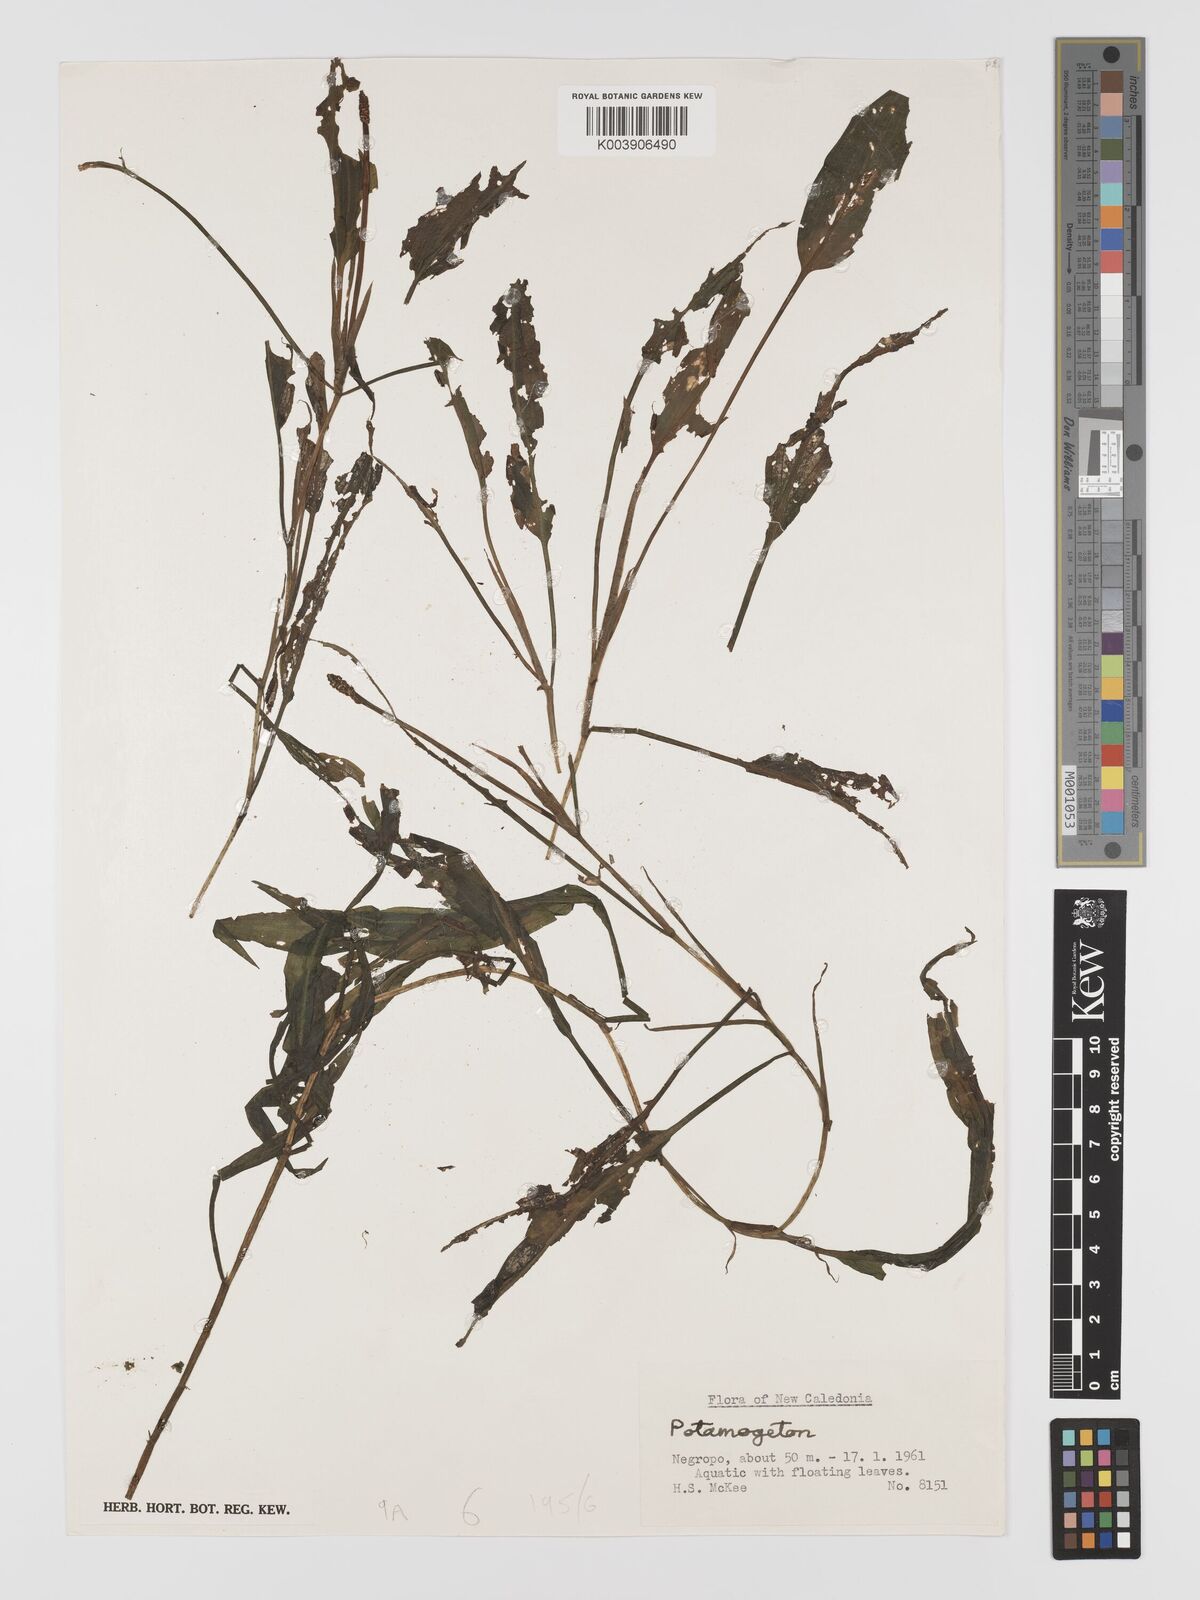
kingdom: Plantae
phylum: Tracheophyta
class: Liliopsida
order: Alismatales
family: Potamogetonaceae
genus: Potamogeton
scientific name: Potamogeton nodosus
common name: Loddon pondweed
